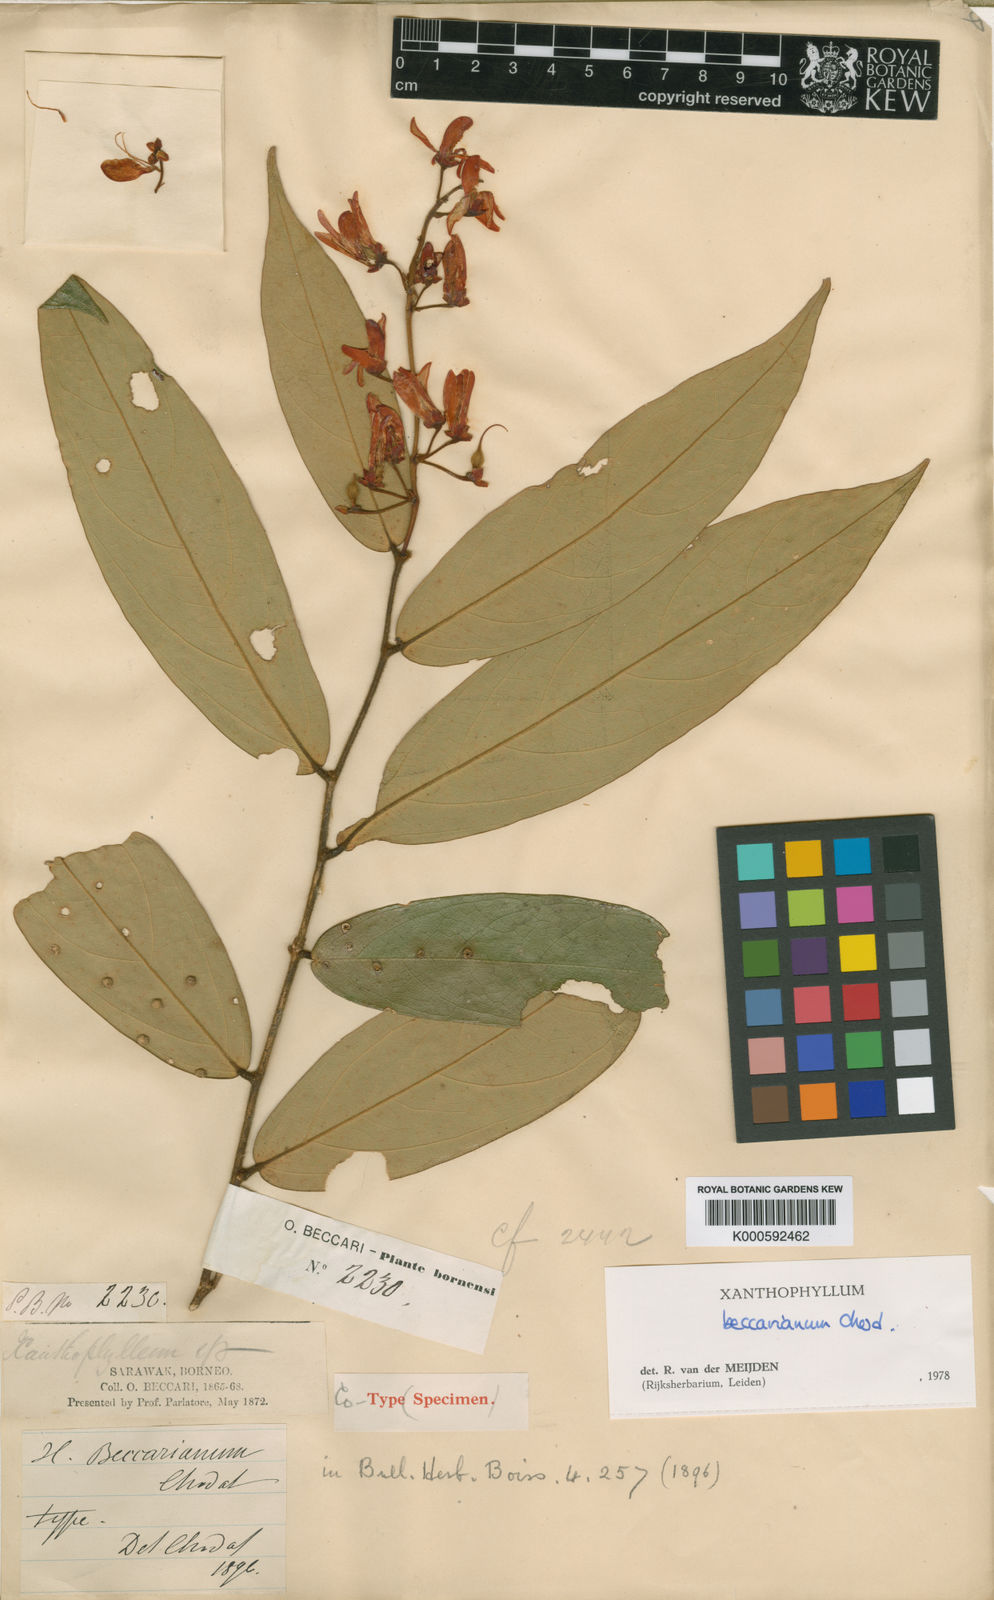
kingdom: Plantae
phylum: Tracheophyta
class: Magnoliopsida
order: Fabales
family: Polygalaceae
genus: Xanthophyllum
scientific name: Xanthophyllum beccarianum
